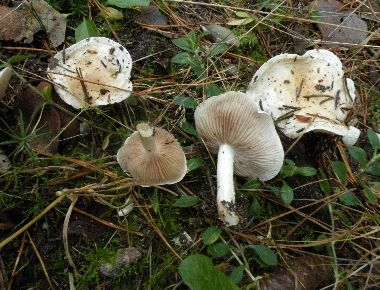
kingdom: Fungi
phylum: Basidiomycota
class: Agaricomycetes
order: Agaricales
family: Hymenogastraceae
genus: Hebeloma
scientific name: Hebeloma ingratum
